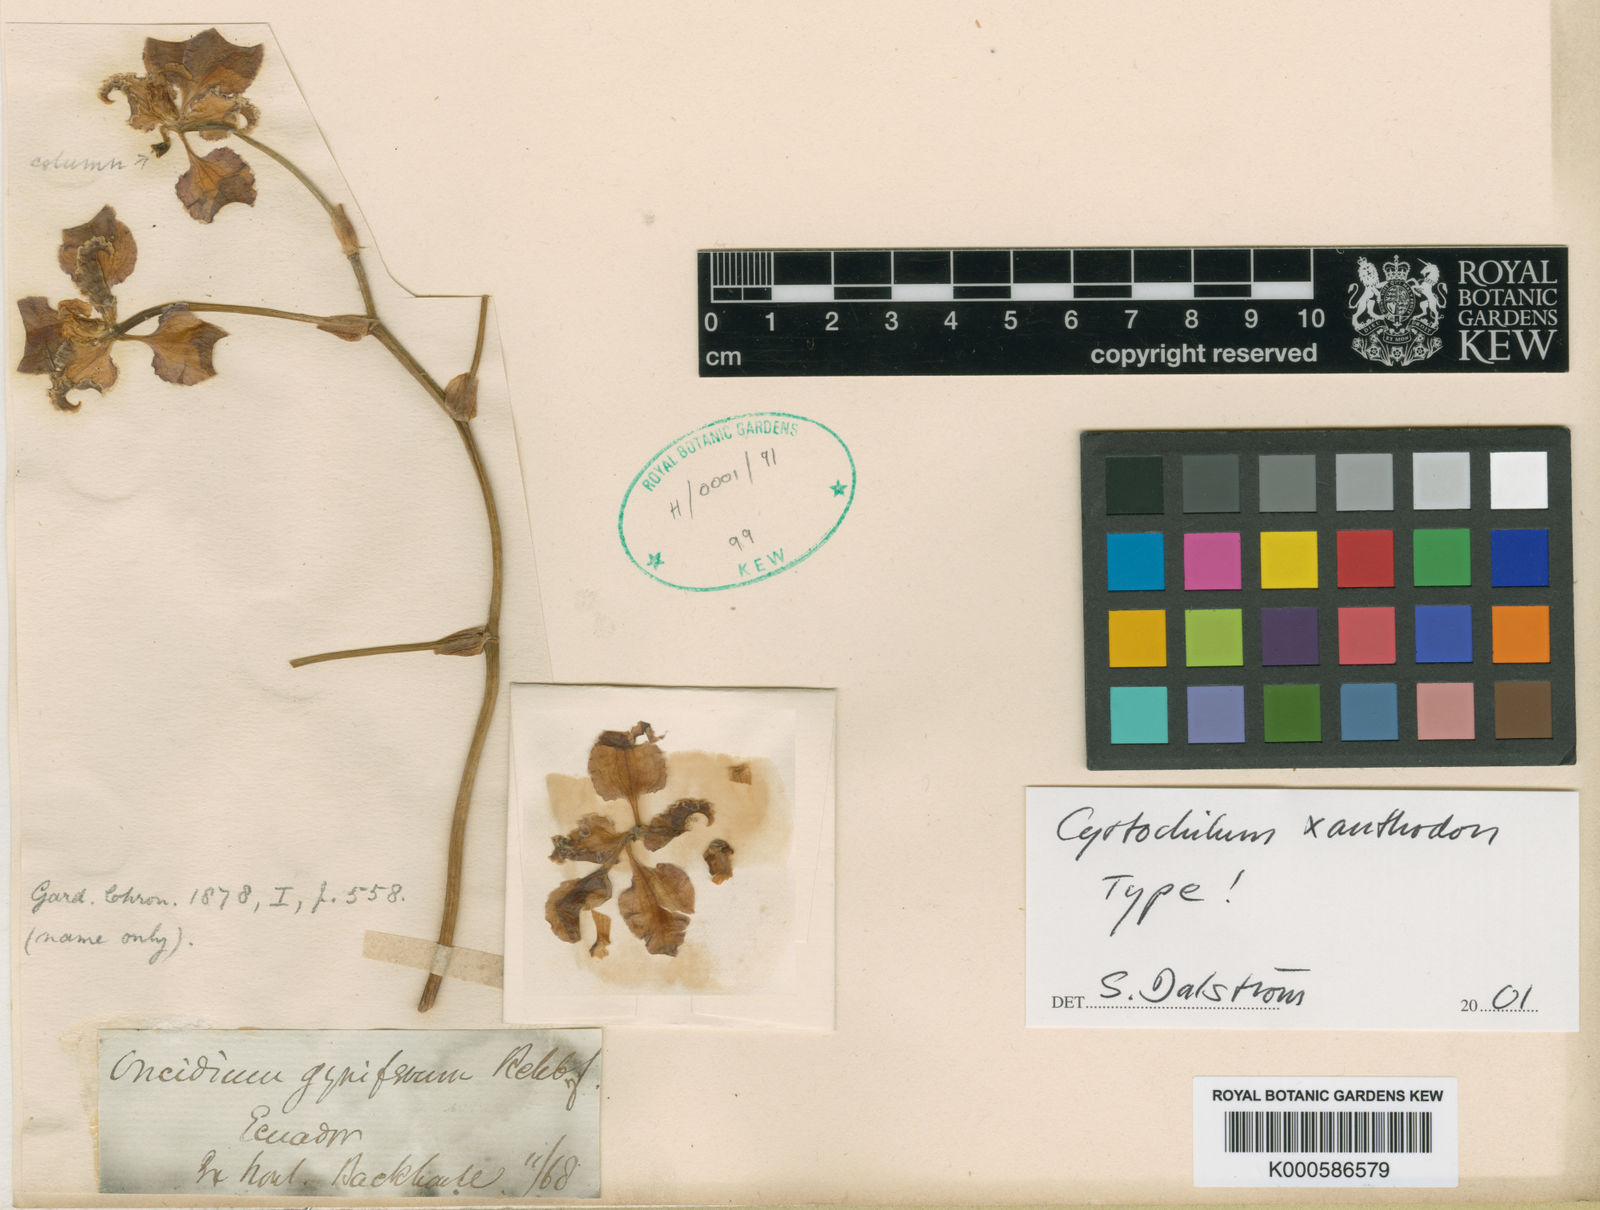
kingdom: Plantae
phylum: Tracheophyta
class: Liliopsida
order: Asparagales
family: Orchidaceae
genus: Cyrtochilum
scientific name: Cyrtochilum xanthodon
